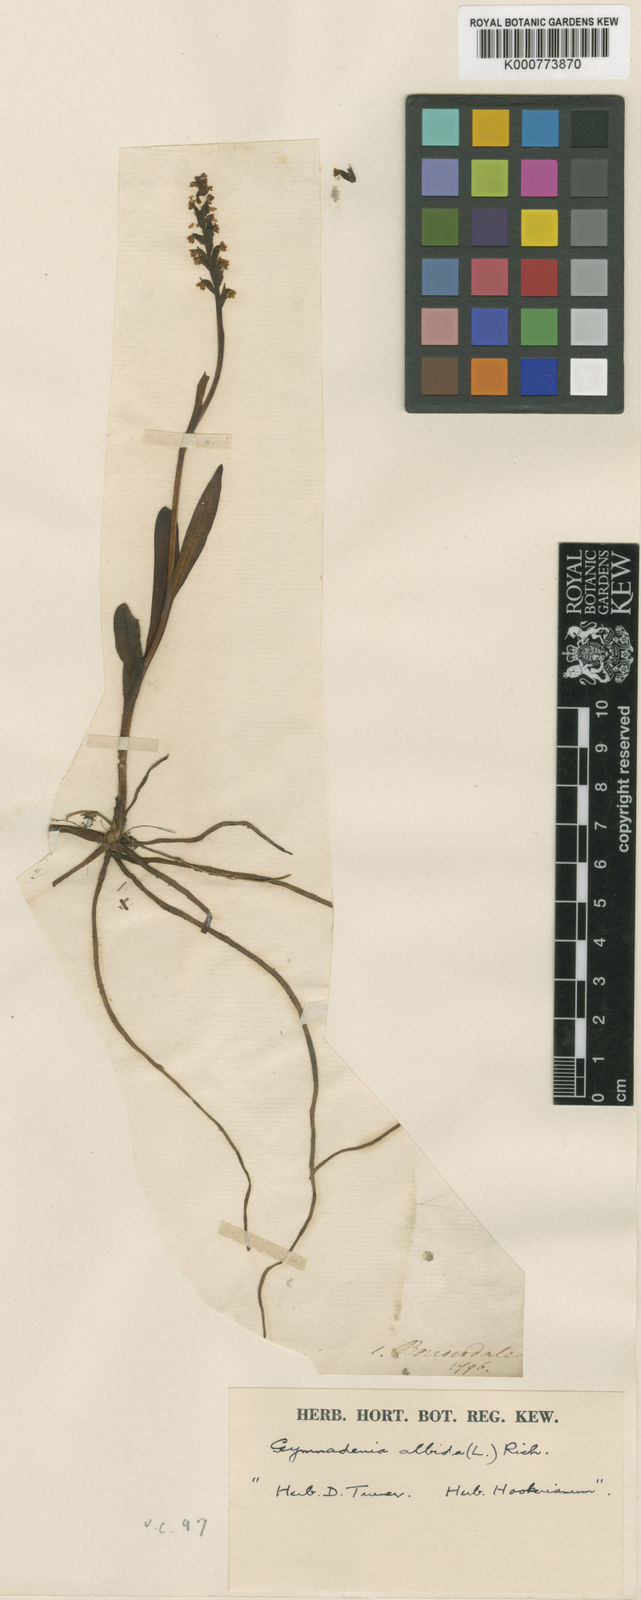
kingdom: Plantae
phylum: Tracheophyta
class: Liliopsida
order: Asparagales
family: Orchidaceae
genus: Pseudorchis
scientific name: Pseudorchis
